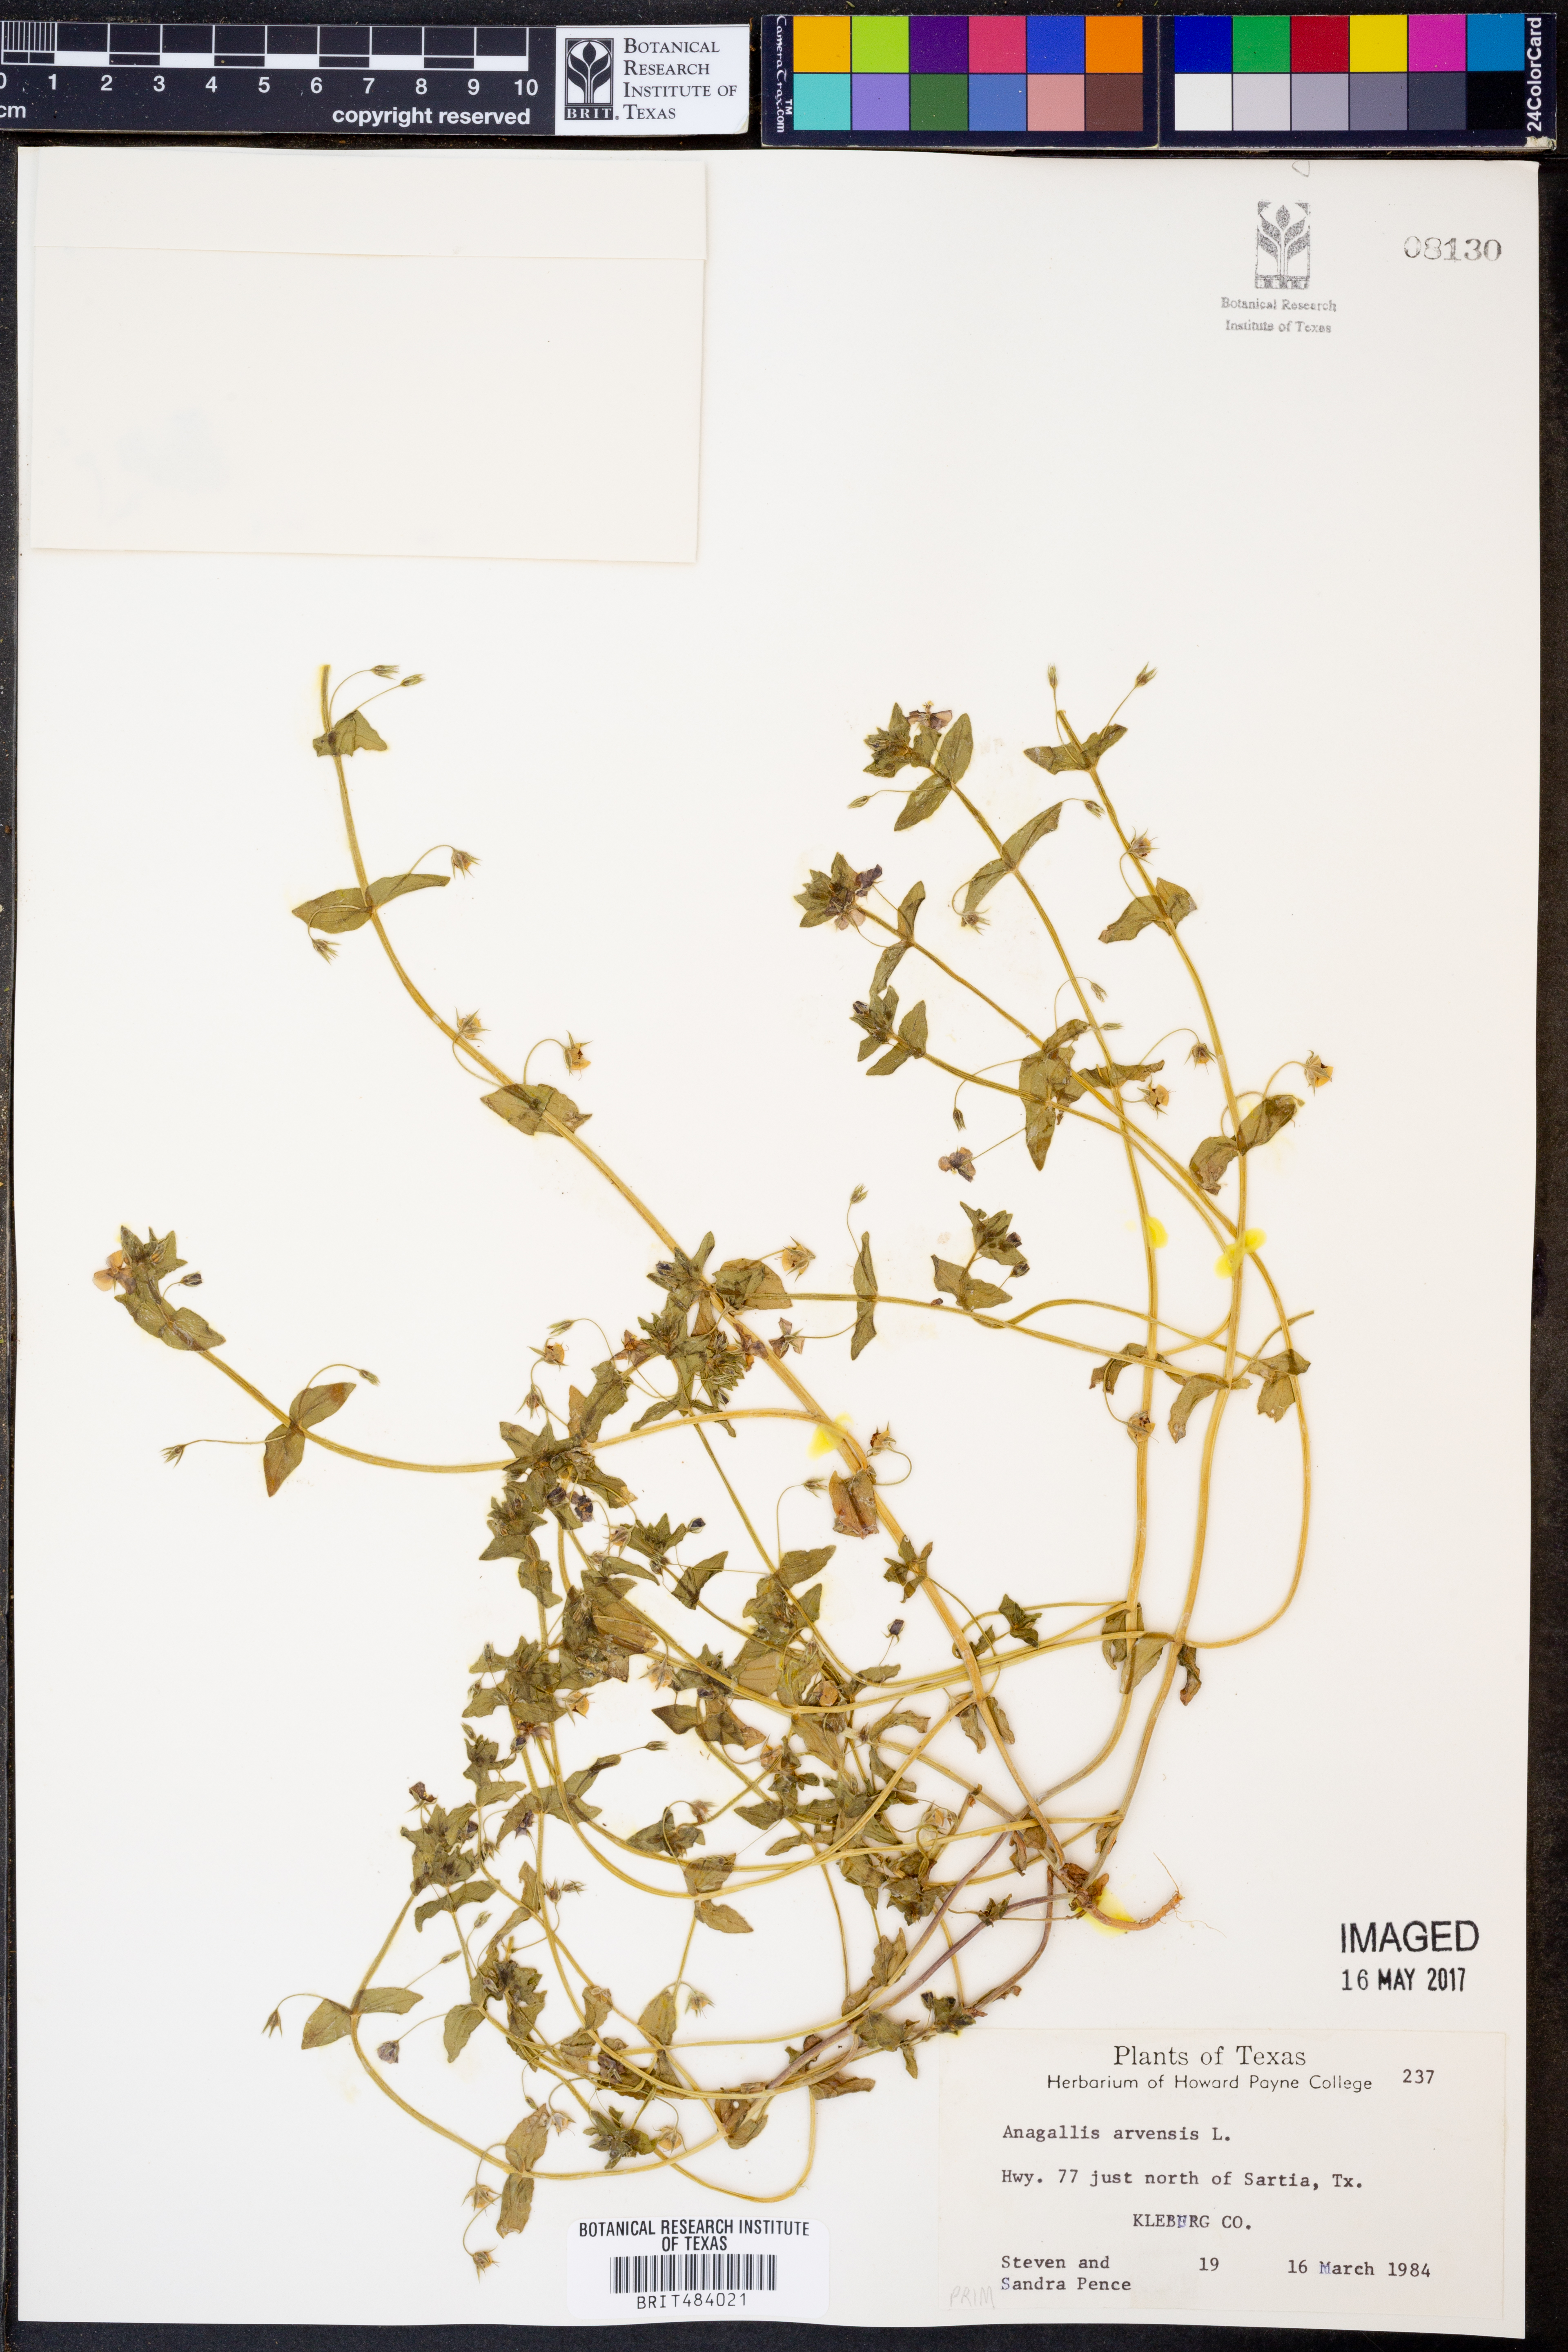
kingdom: Plantae
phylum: Tracheophyta
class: Magnoliopsida
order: Ericales
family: Primulaceae
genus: Lysimachia
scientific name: Lysimachia arvensis
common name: Scarlet pimpernel
